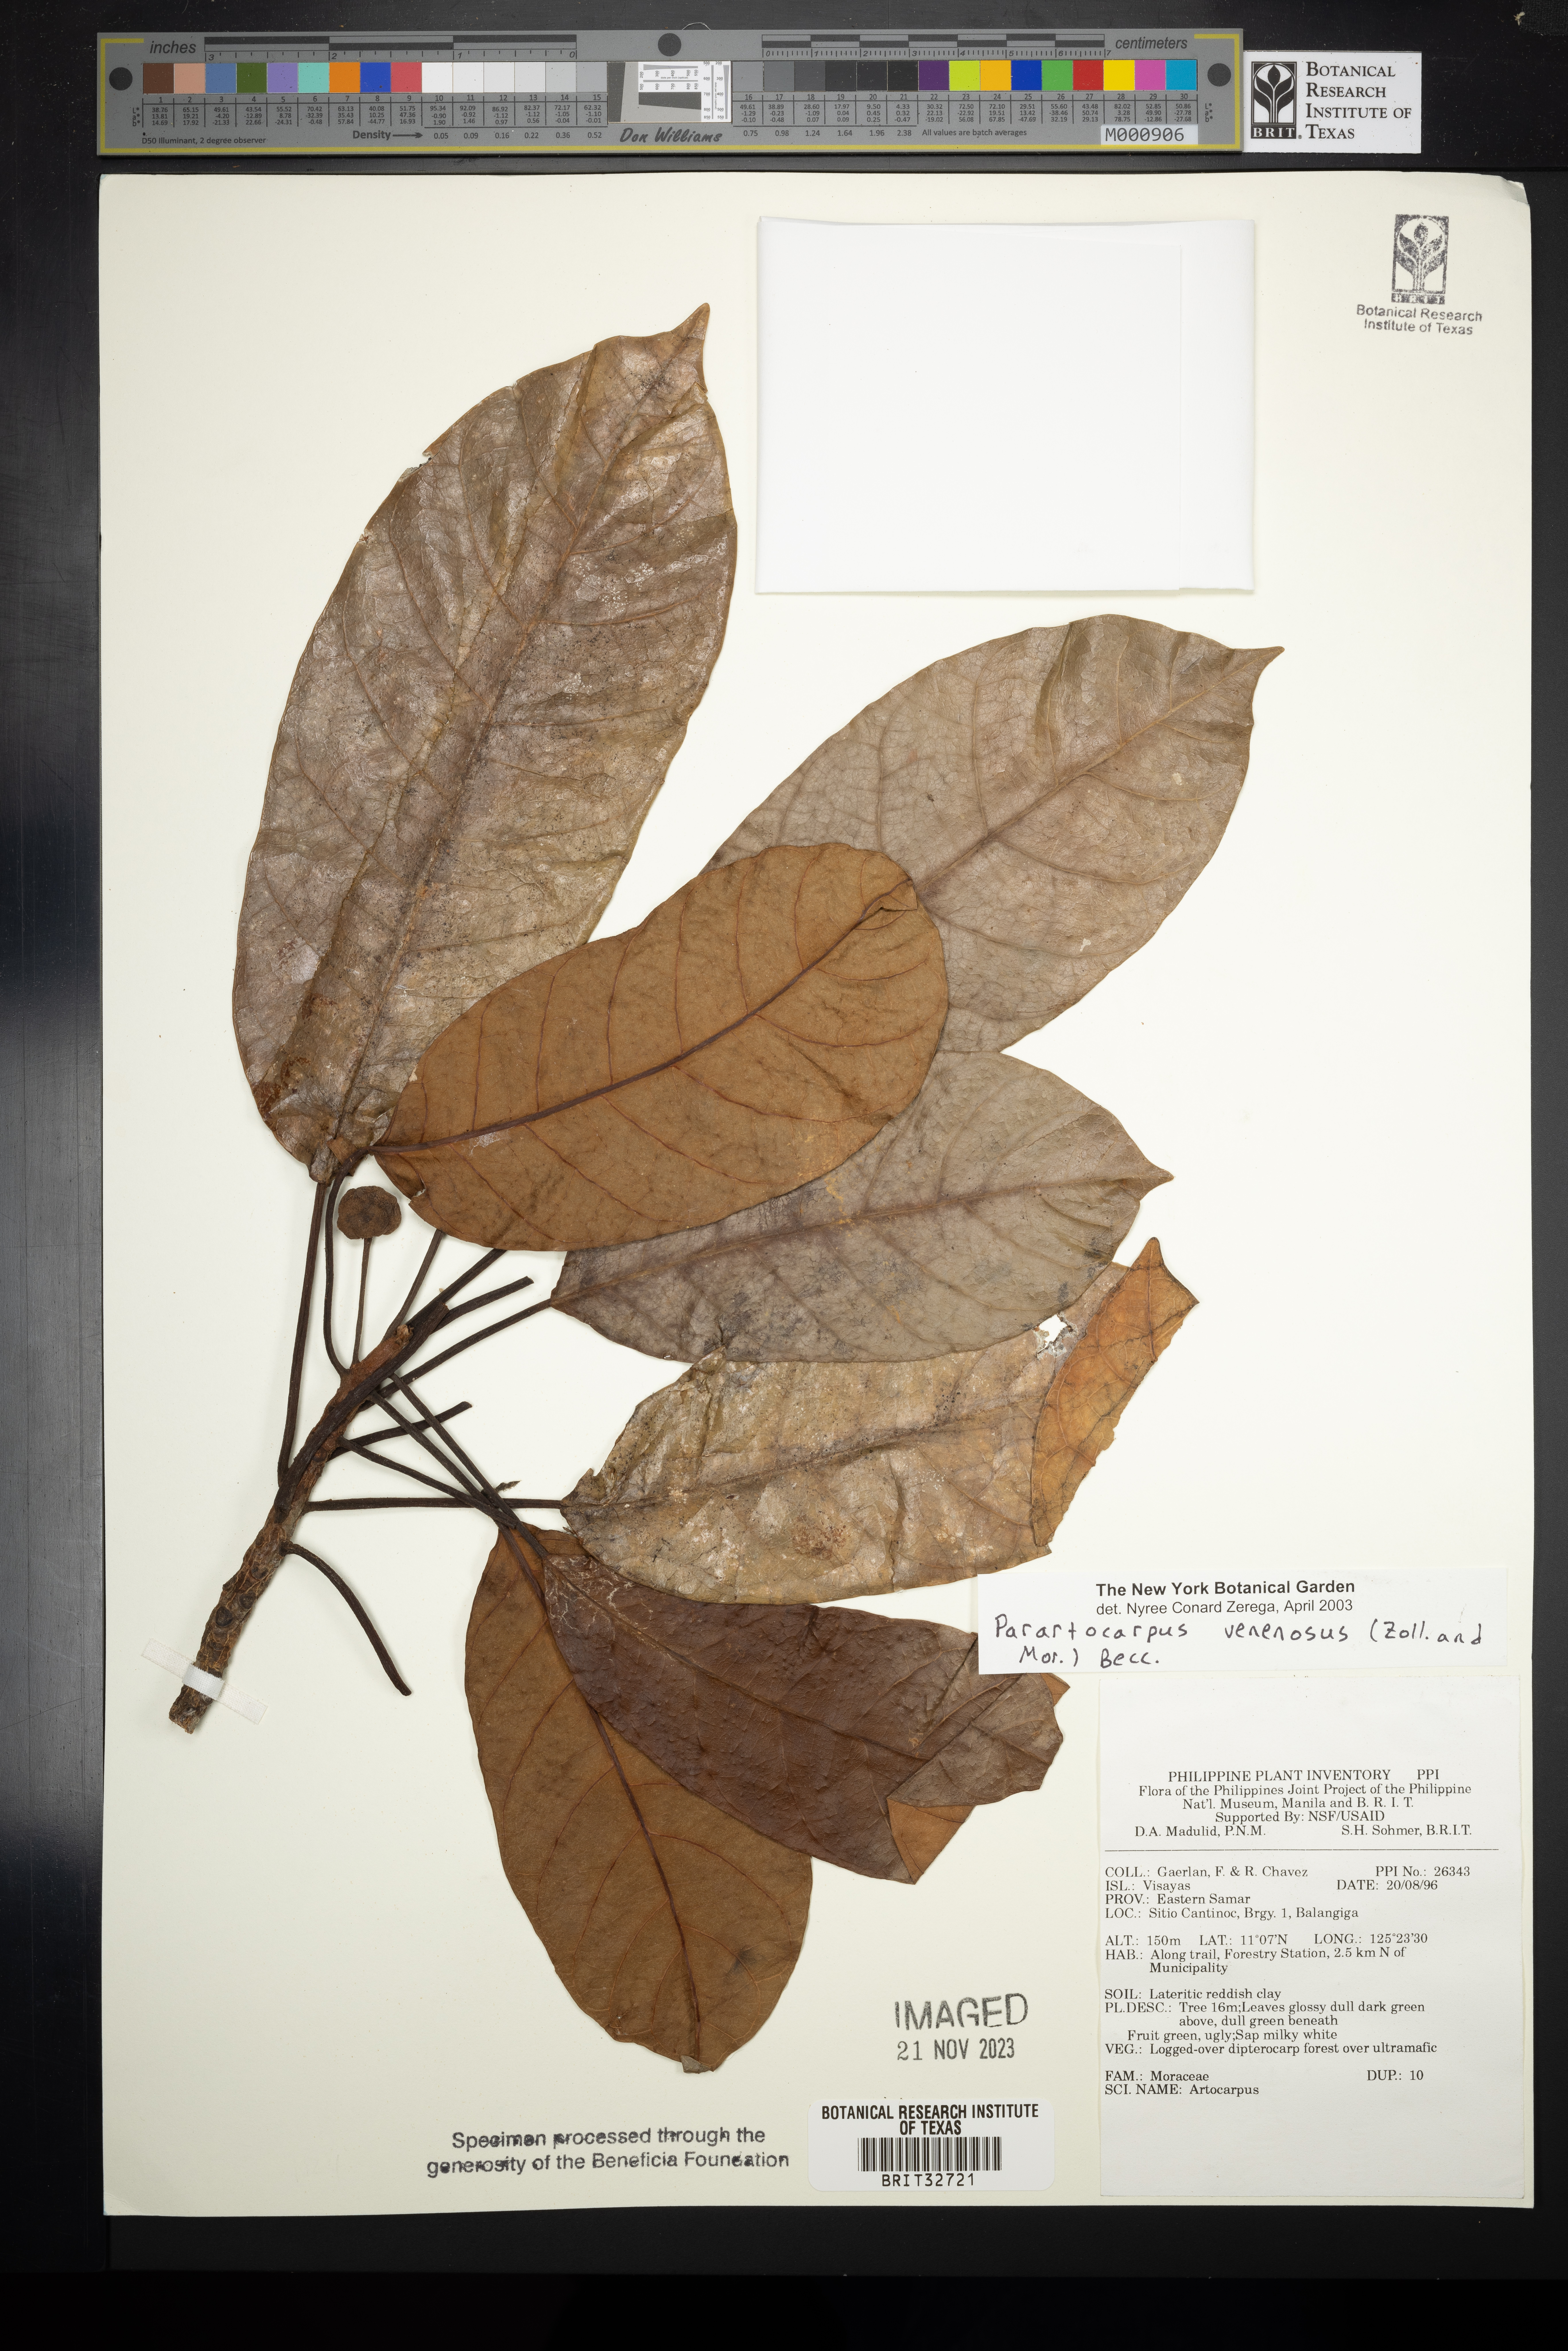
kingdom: Plantae
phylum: Tracheophyta
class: Magnoliopsida
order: Rosales
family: Moraceae
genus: Parartocarpus
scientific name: Parartocarpus venenosa
